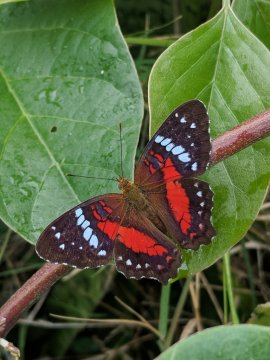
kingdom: Animalia
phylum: Arthropoda
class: Insecta
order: Lepidoptera
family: Nymphalidae
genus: Anartia
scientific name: Anartia amathea
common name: Red Peacock
